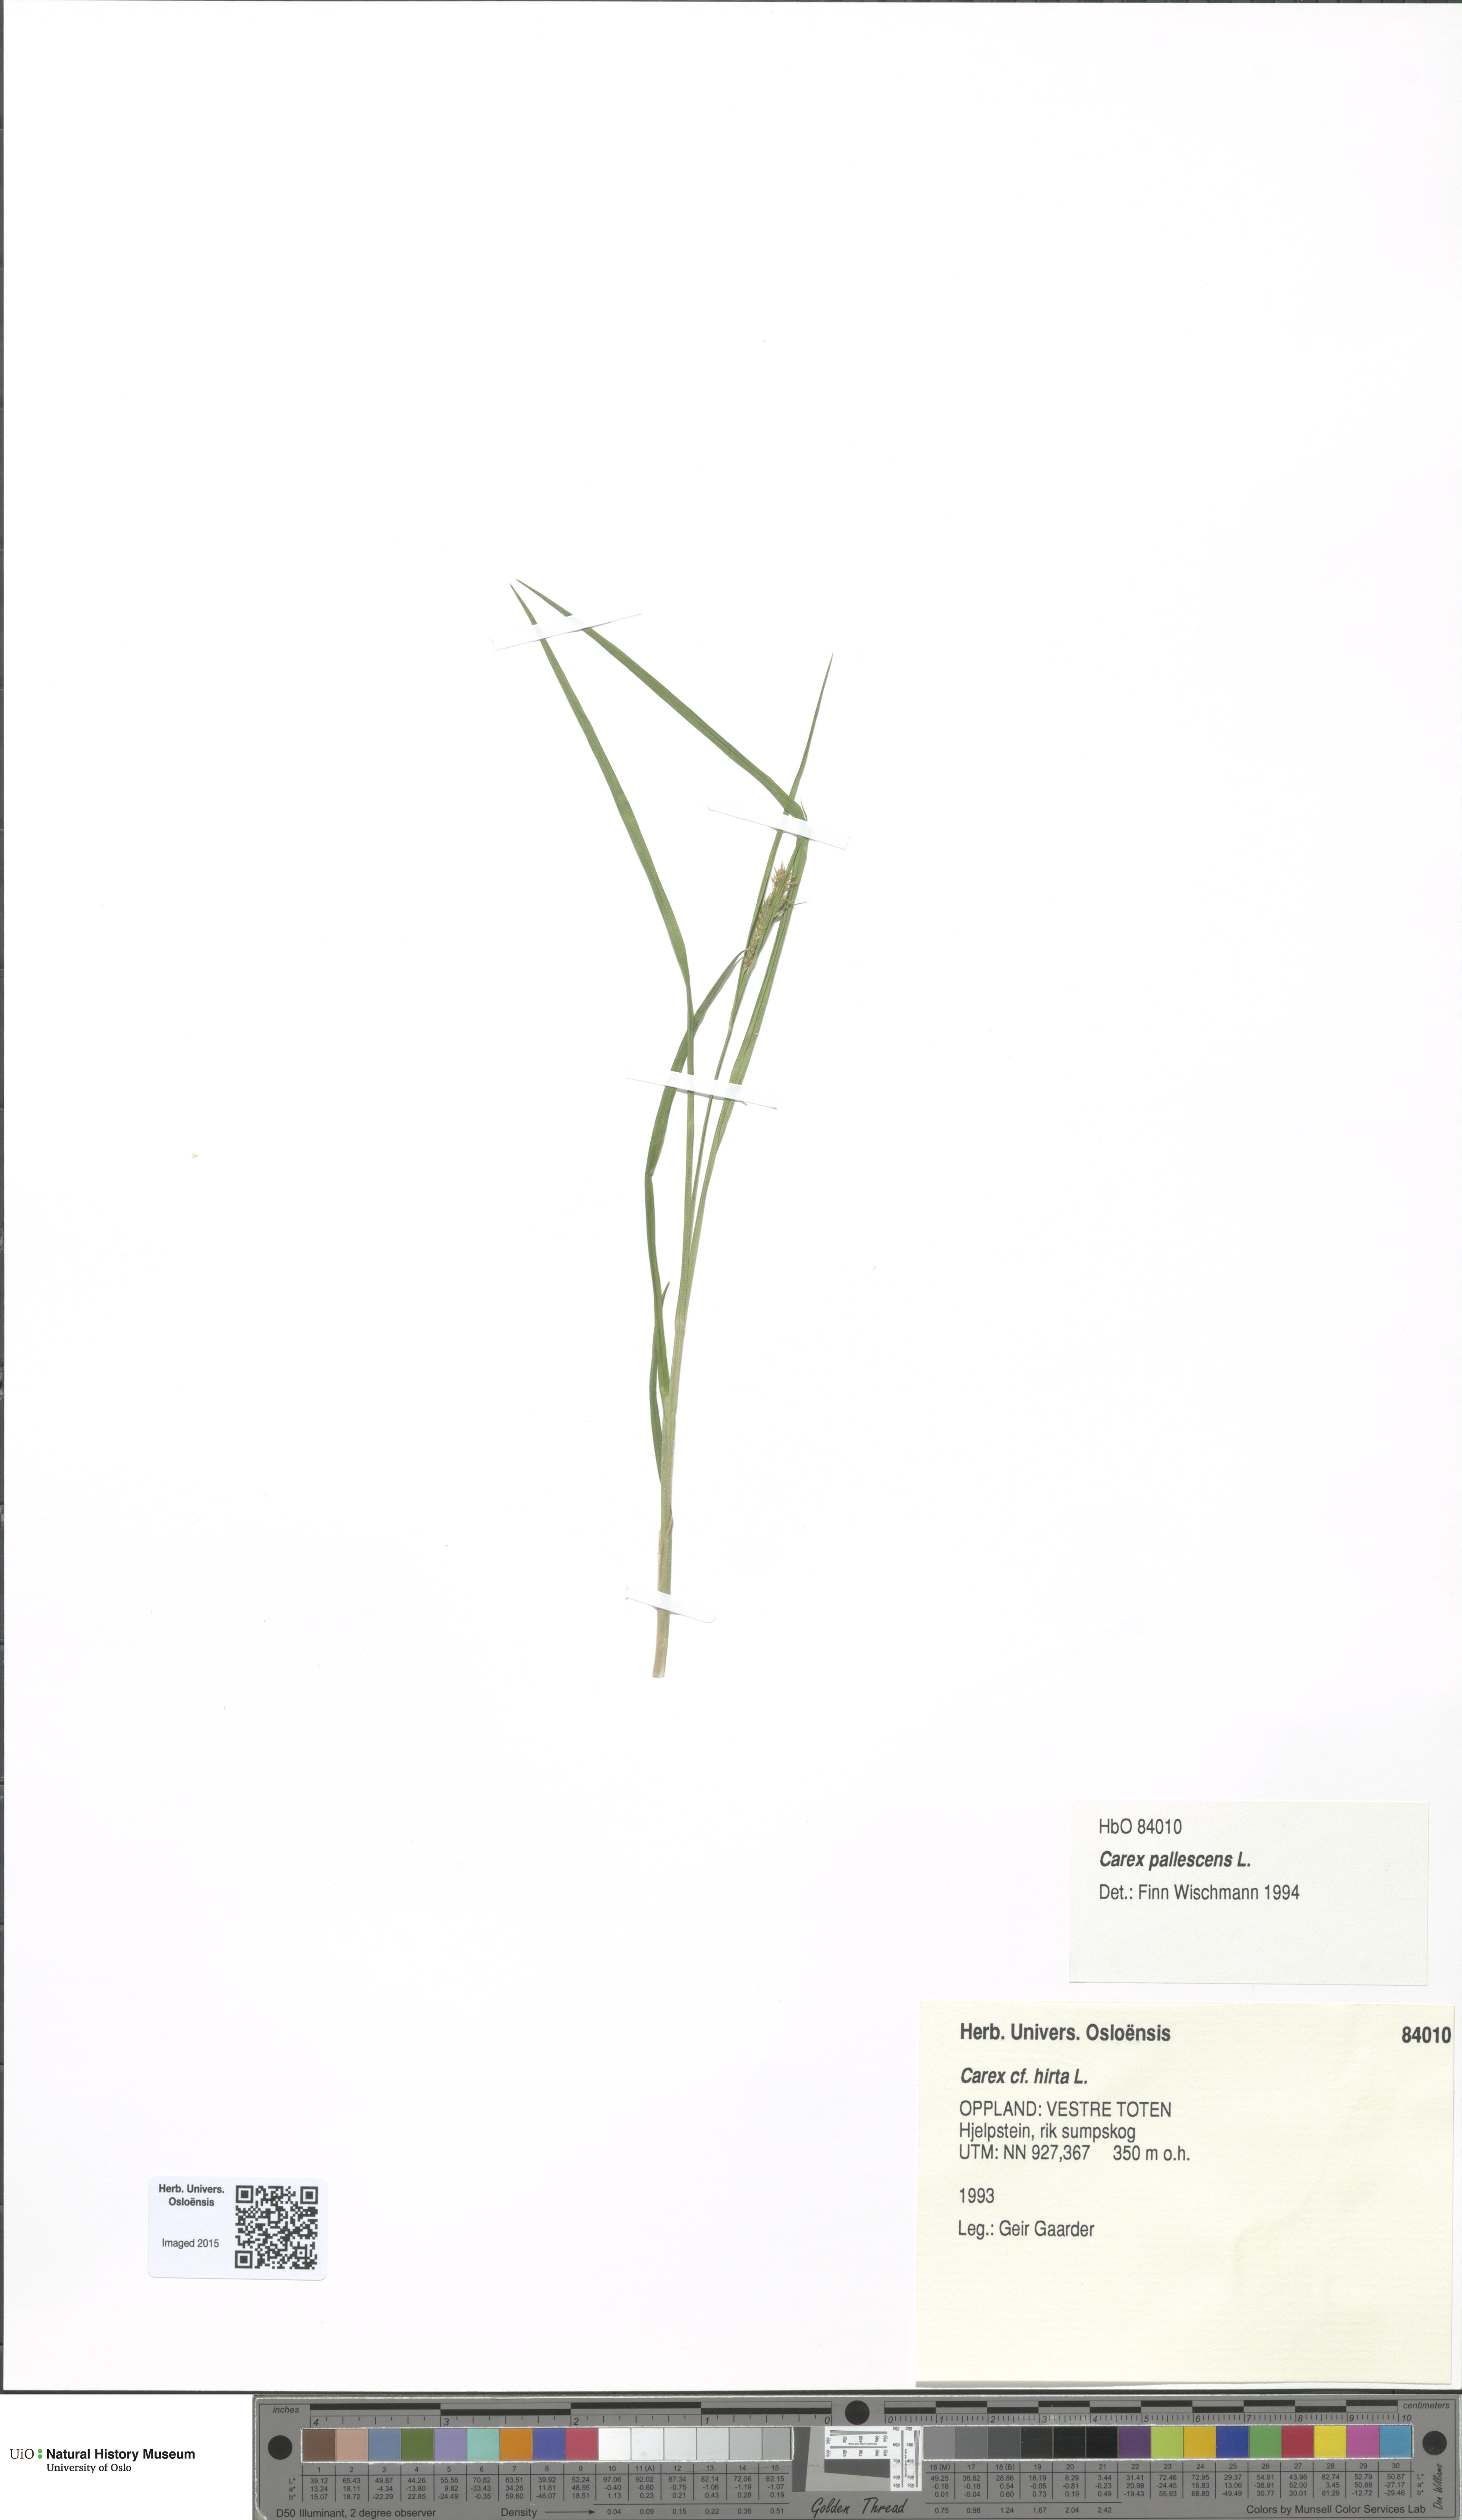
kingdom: Plantae
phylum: Tracheophyta
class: Liliopsida
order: Poales
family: Cyperaceae
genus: Carex
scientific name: Carex pallescens
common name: Pale sedge
